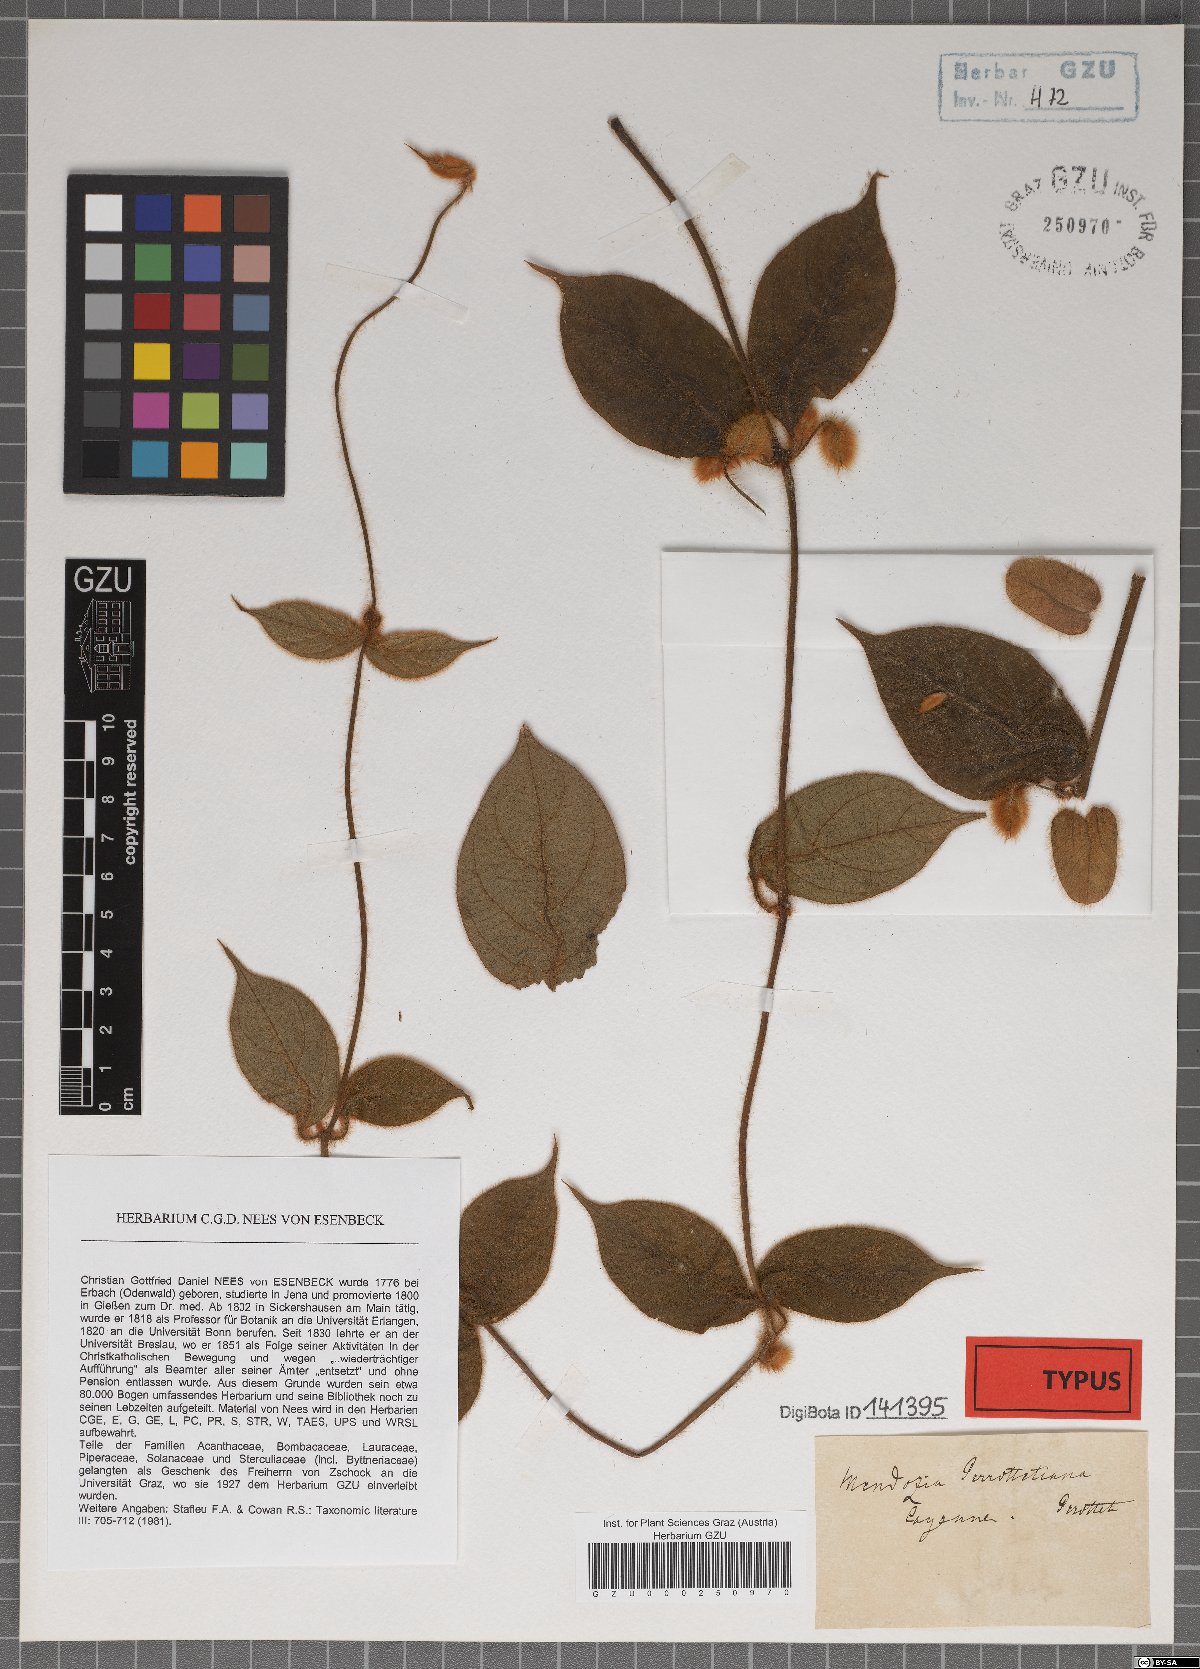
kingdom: Plantae
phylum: Tracheophyta
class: Magnoliopsida
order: Lamiales
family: Acanthaceae
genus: Mendoncia
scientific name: Mendoncia bivalvis
